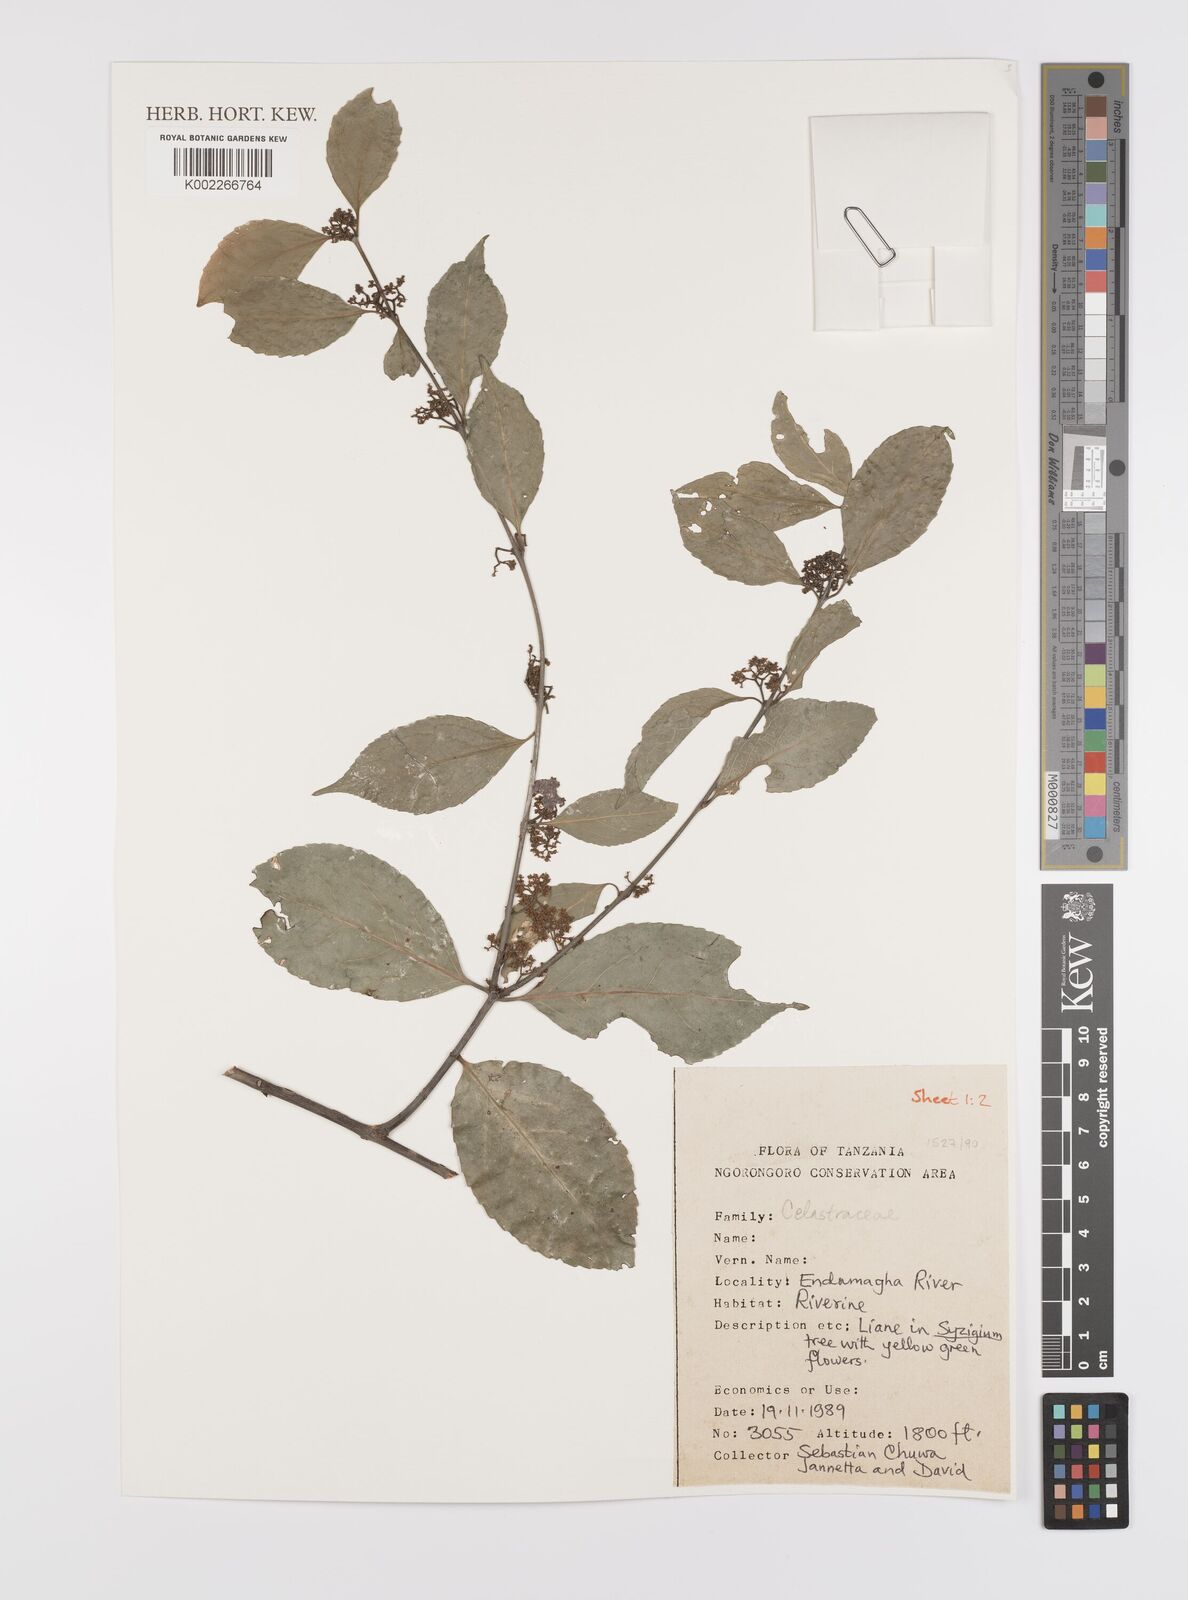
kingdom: Plantae
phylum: Tracheophyta
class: Magnoliopsida
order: Celastrales
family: Celastraceae
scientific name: Celastraceae
